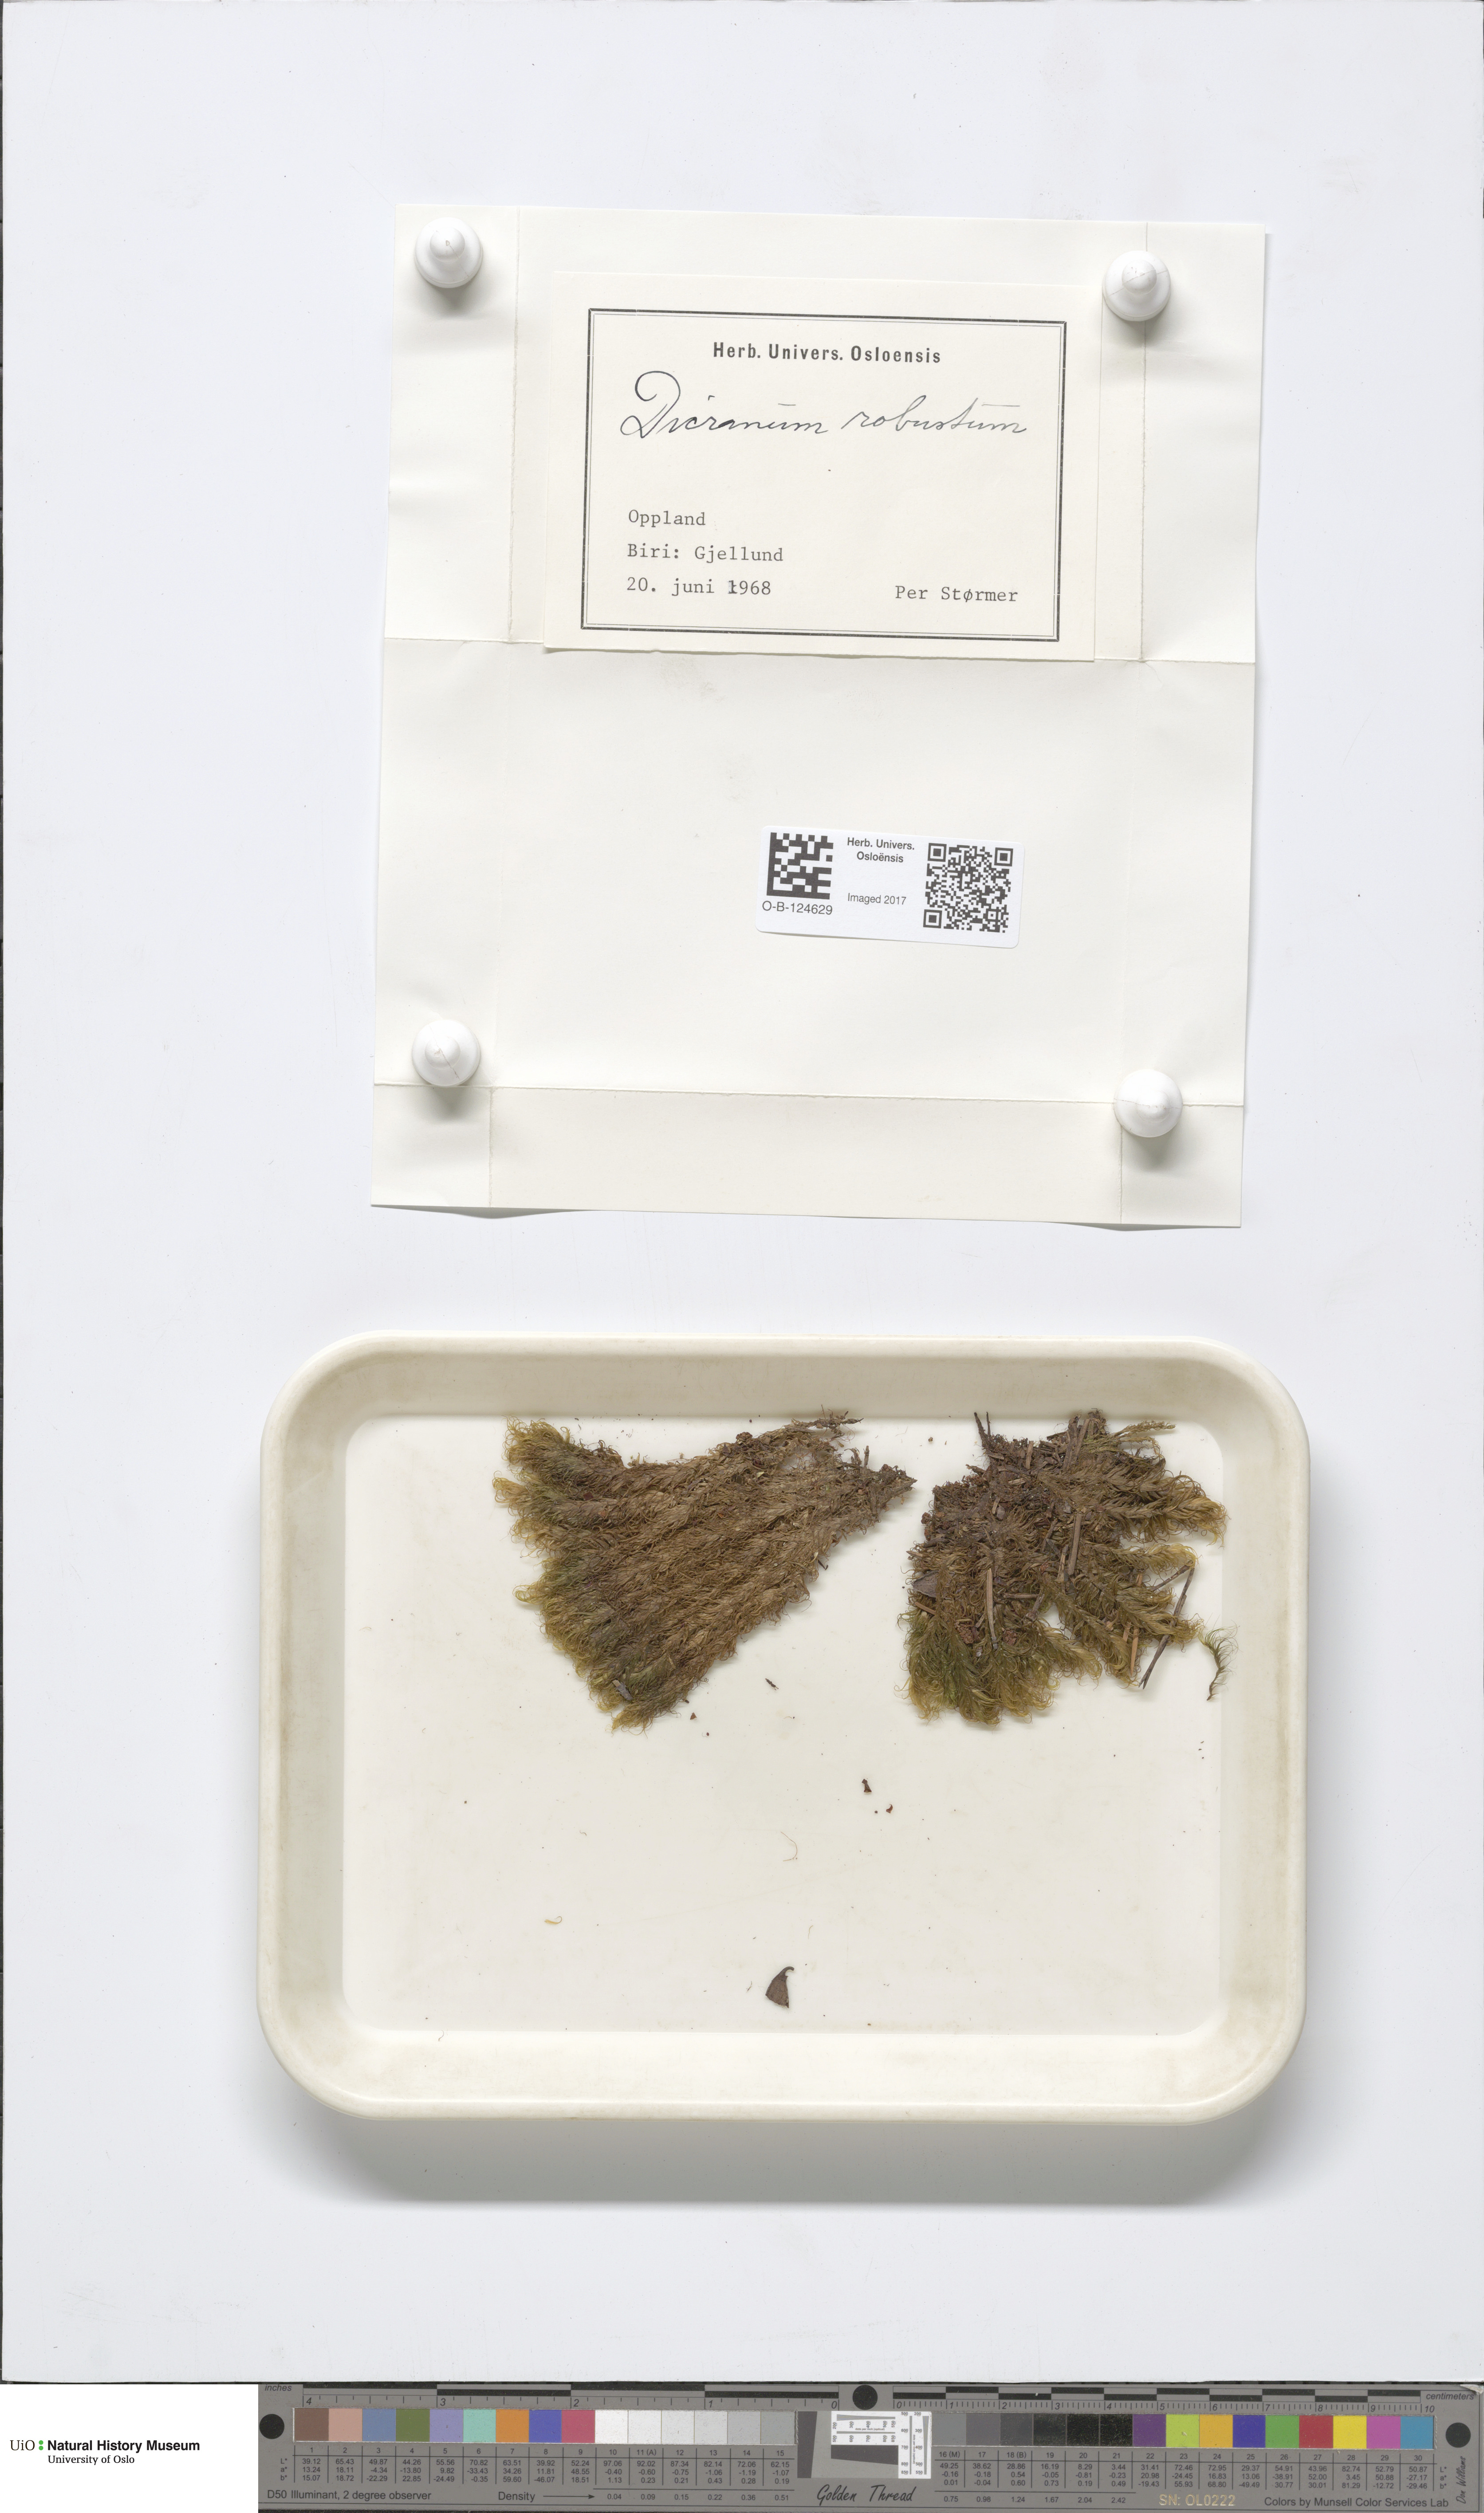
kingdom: Plantae
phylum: Bryophyta
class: Bryopsida
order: Dicranales
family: Dicranaceae
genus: Dicranum
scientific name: Dicranum drummondii
